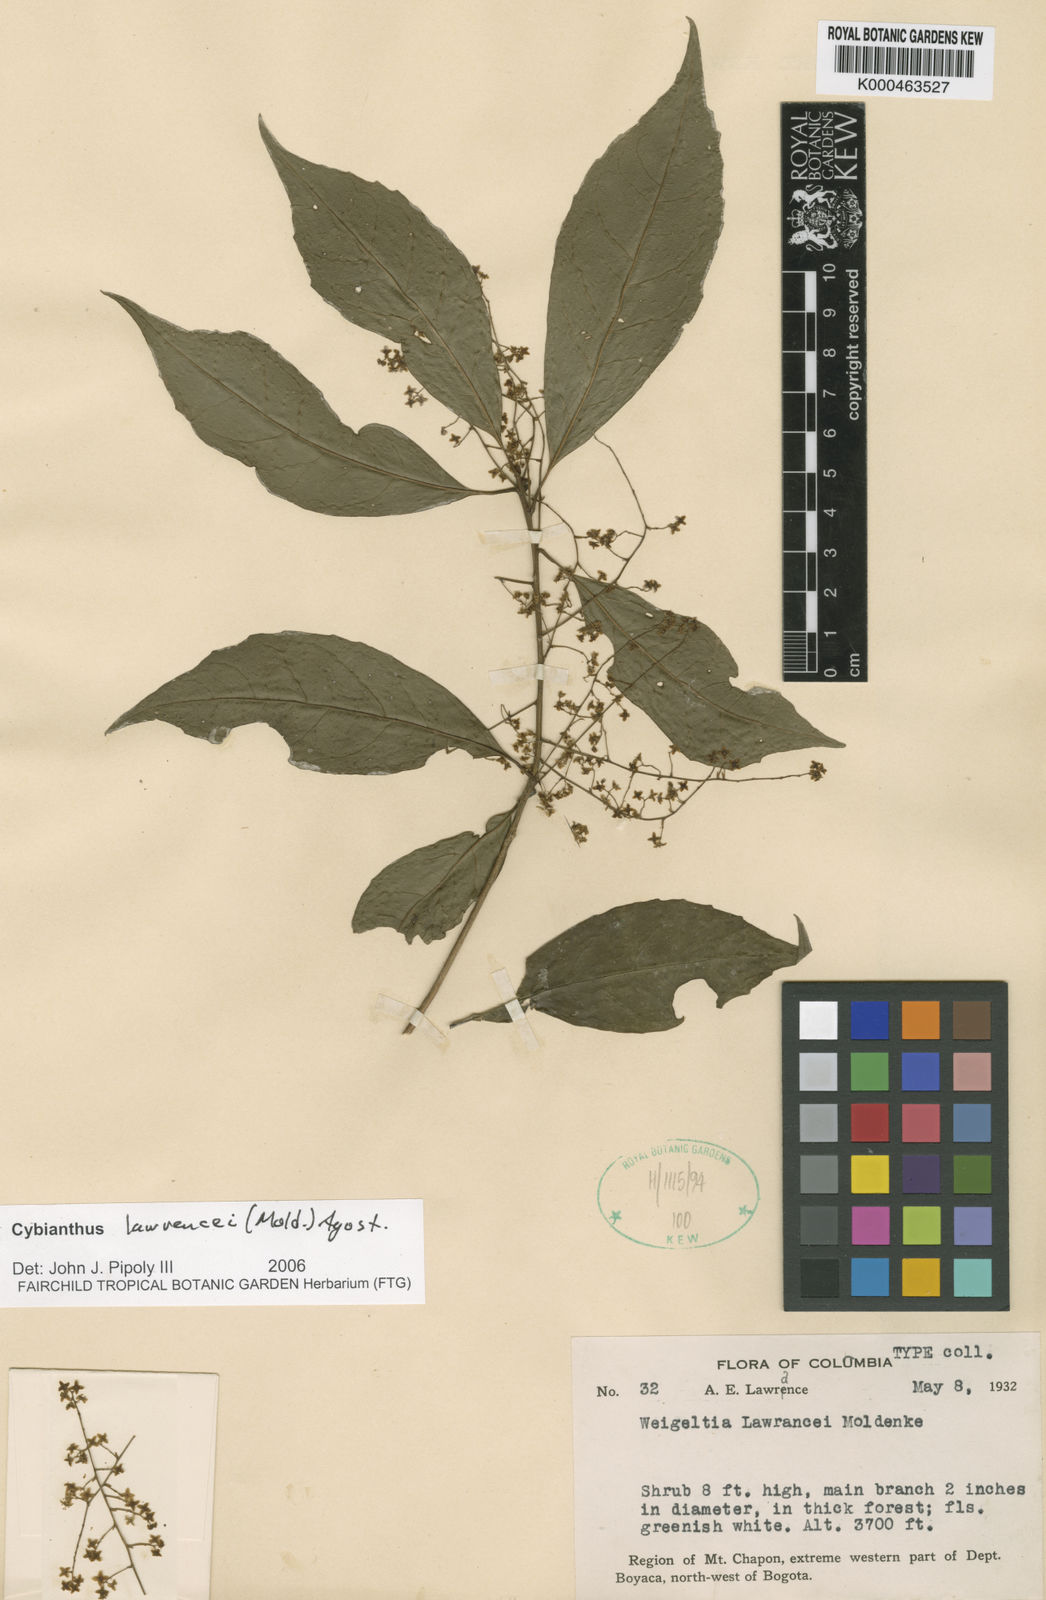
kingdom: Plantae
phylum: Tracheophyta
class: Magnoliopsida
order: Ericales
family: Primulaceae
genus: Cybianthus
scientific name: Cybianthus
